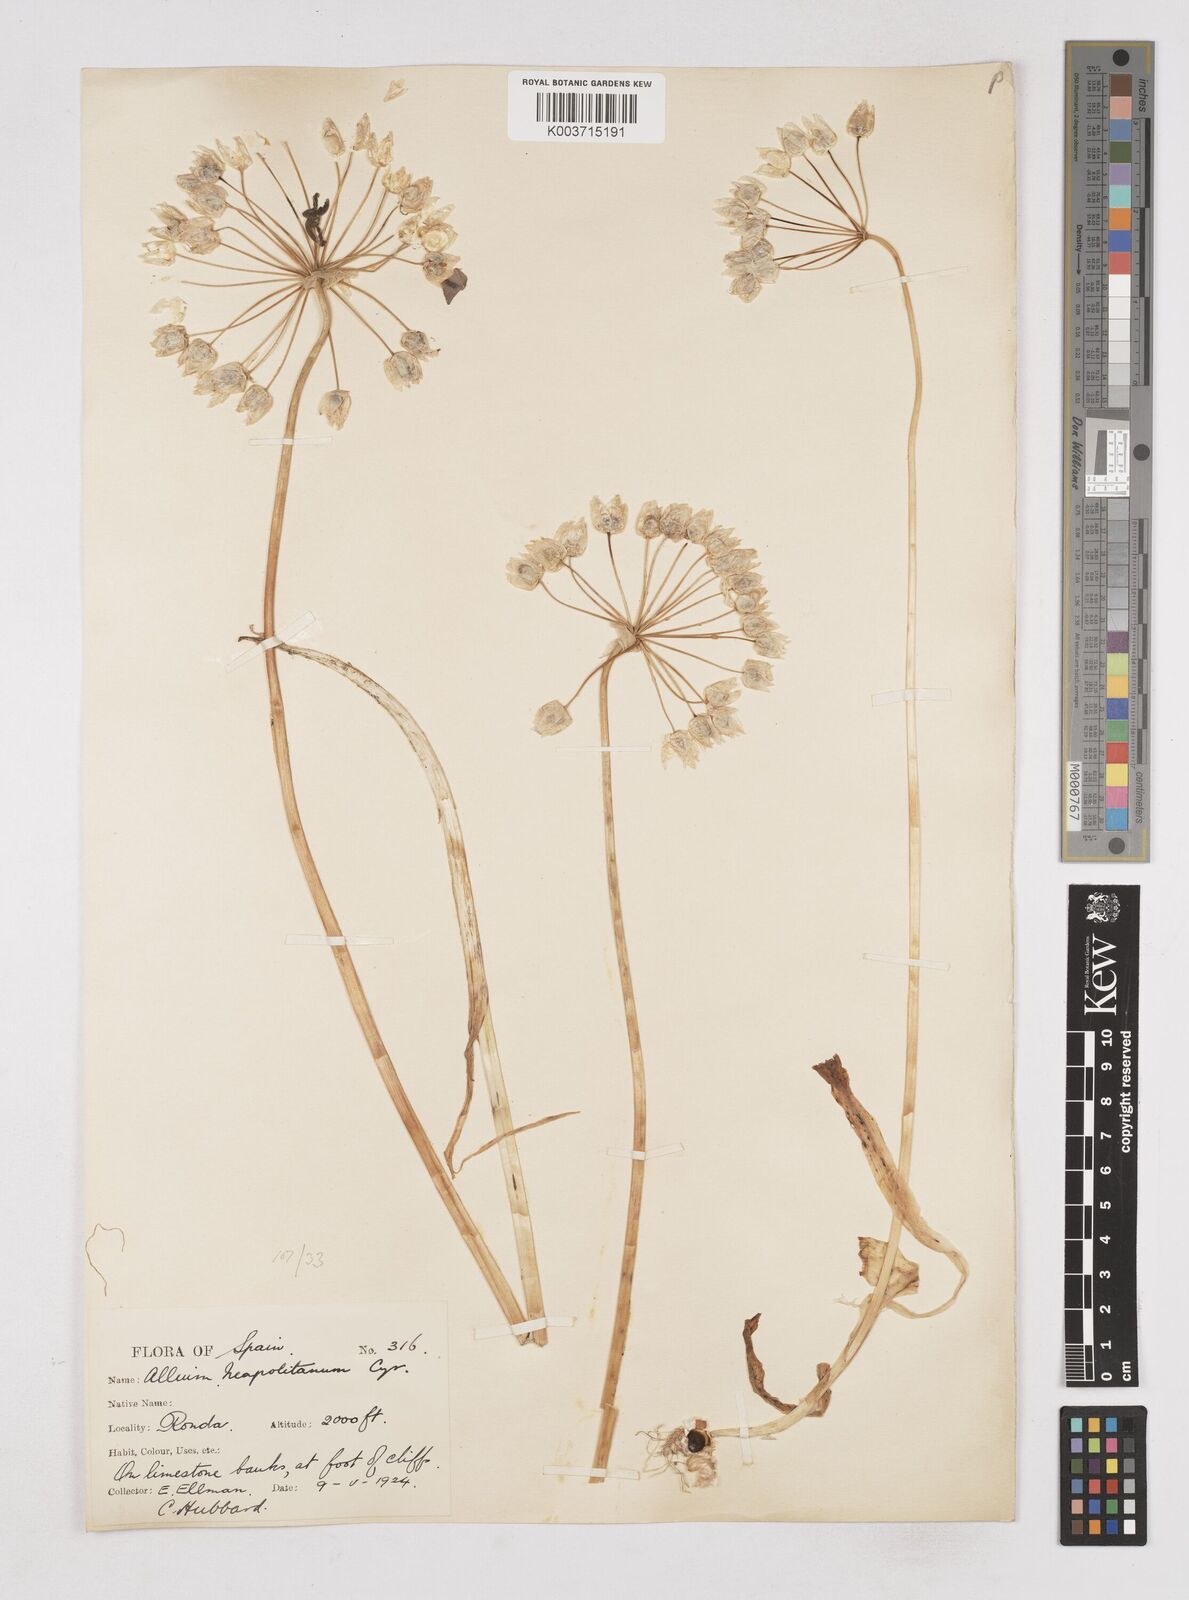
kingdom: Plantae
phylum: Tracheophyta
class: Liliopsida
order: Asparagales
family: Amaryllidaceae
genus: Allium
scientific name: Allium neapolitanum
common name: Neapolitan garlic
